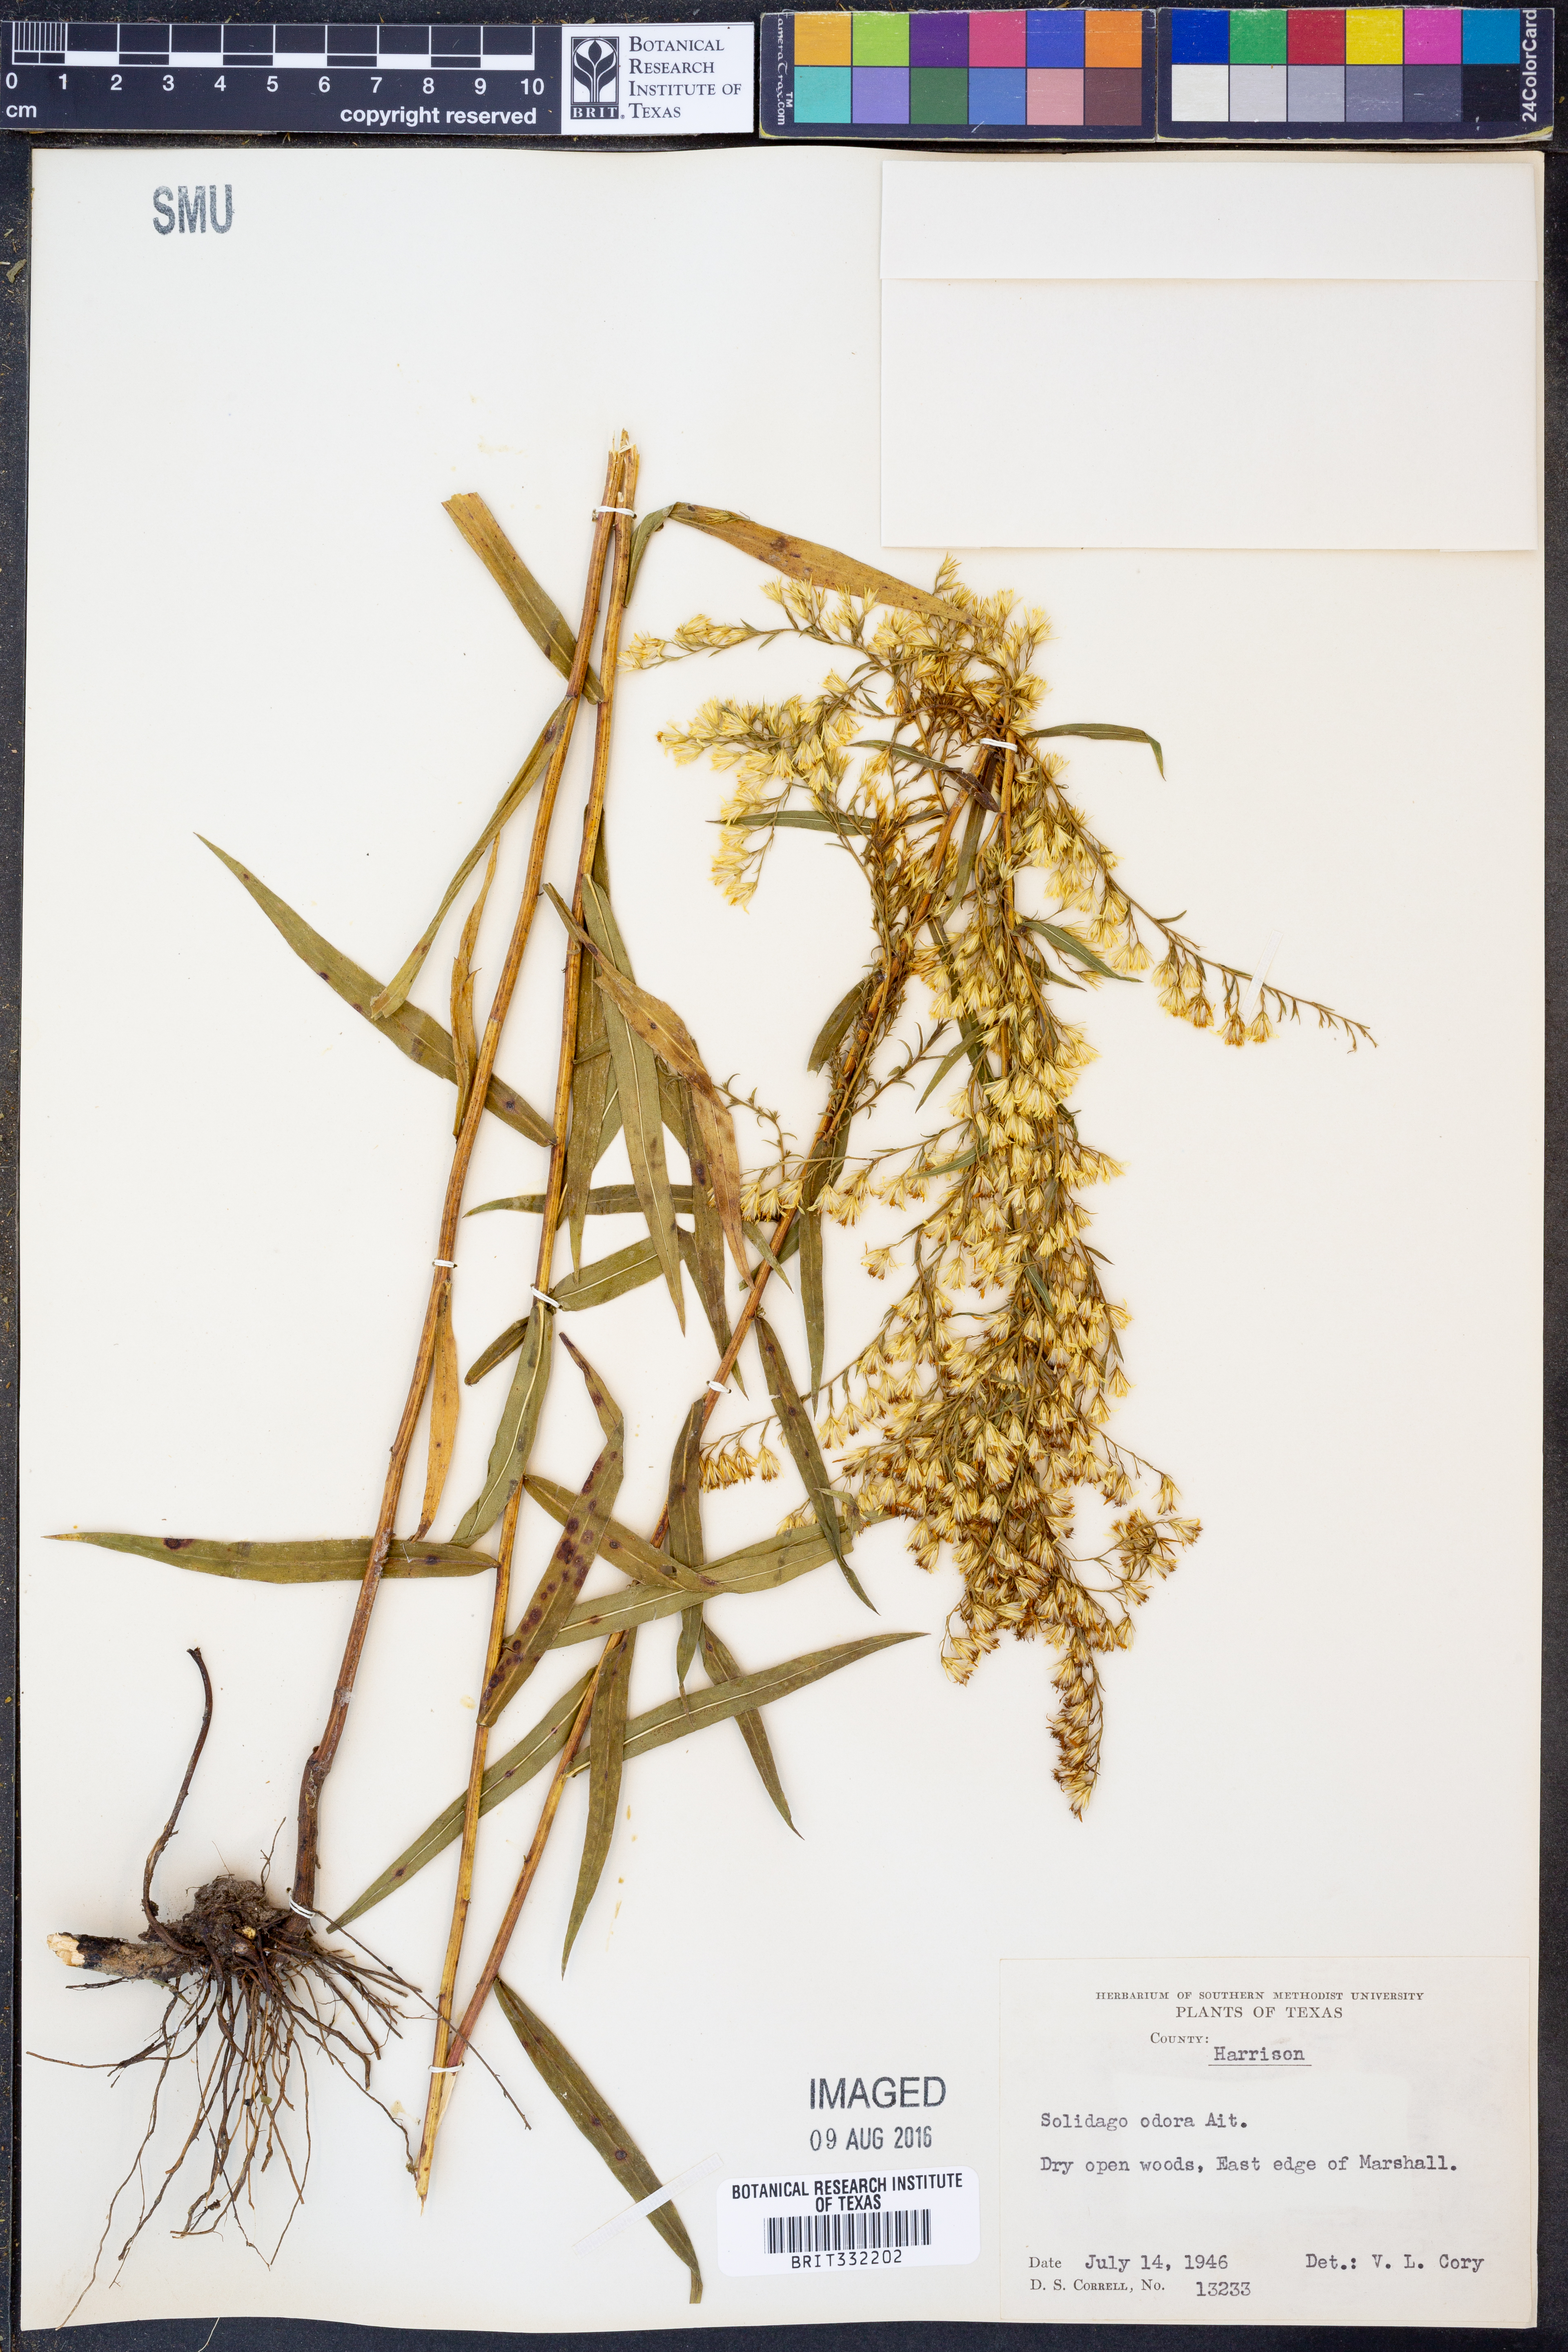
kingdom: Plantae
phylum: Tracheophyta
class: Magnoliopsida
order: Asterales
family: Asteraceae
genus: Solidago
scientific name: Solidago odora
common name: Anise-scented goldenrod
